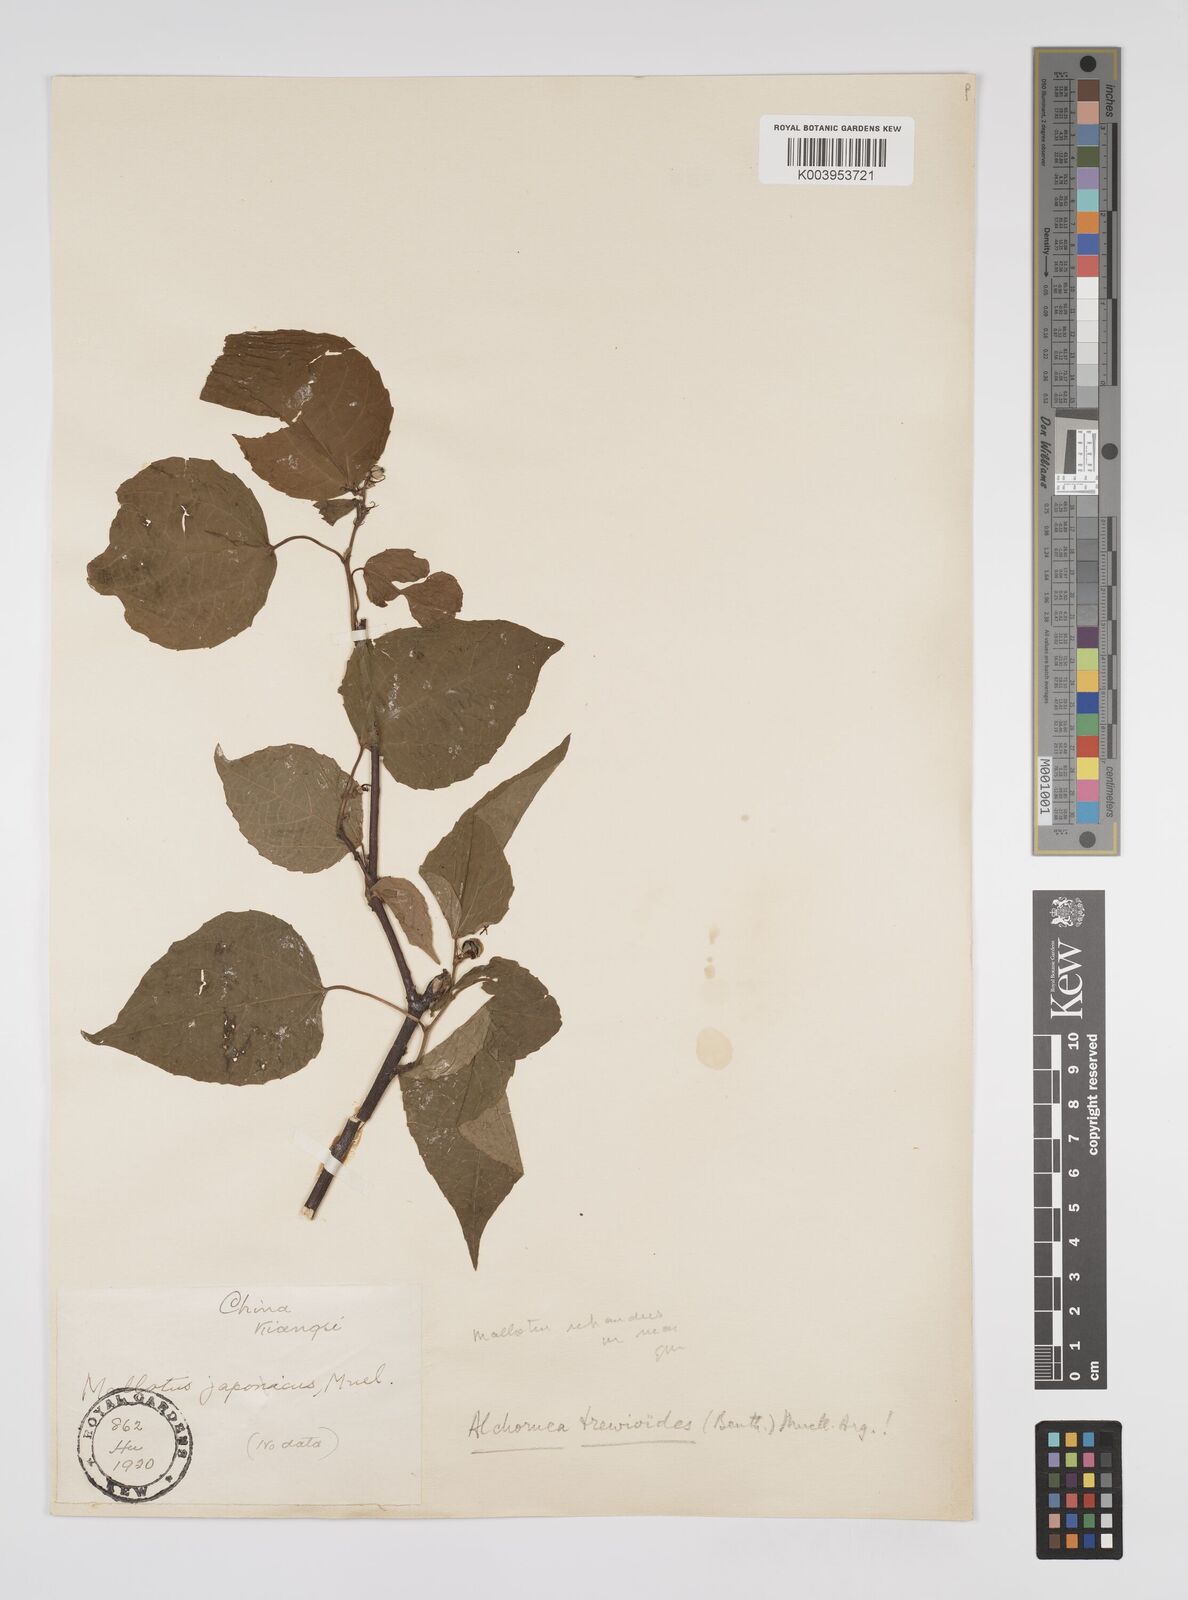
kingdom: Plantae
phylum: Tracheophyta
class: Magnoliopsida
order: Malpighiales
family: Euphorbiaceae
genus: Alchornea
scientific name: Alchornea trewioides
